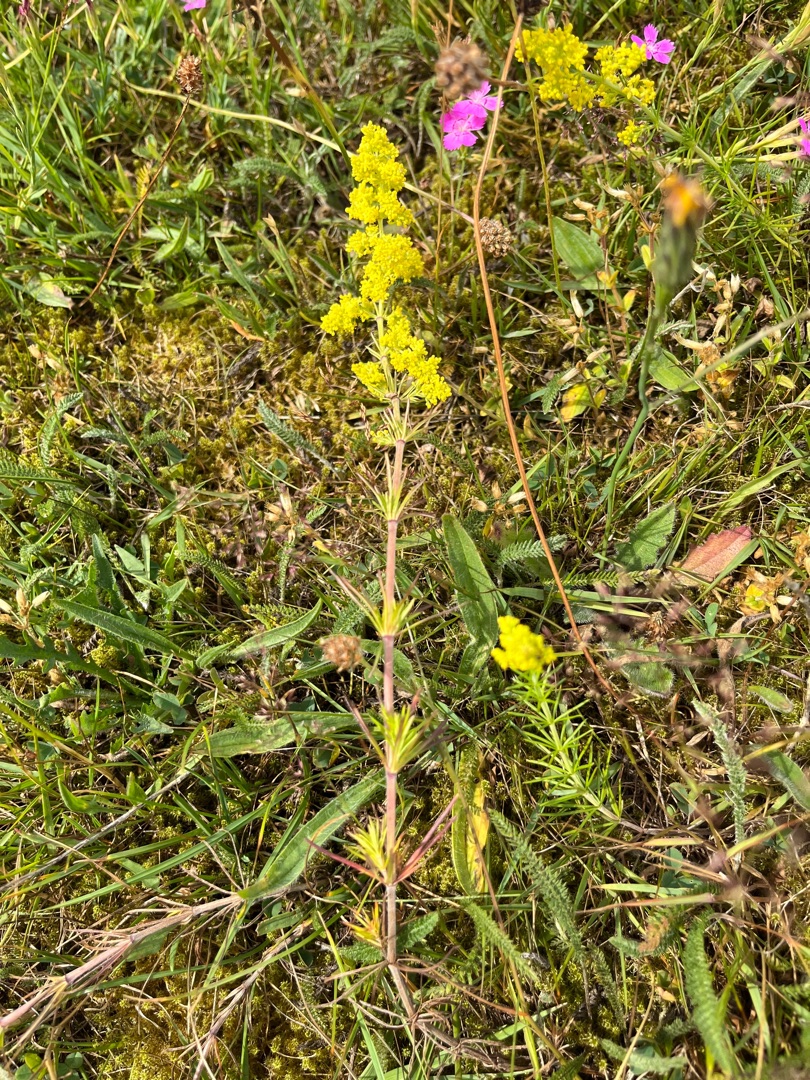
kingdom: Plantae
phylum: Tracheophyta
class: Magnoliopsida
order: Gentianales
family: Rubiaceae
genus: Galium
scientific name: Galium verum
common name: Gul snerre
